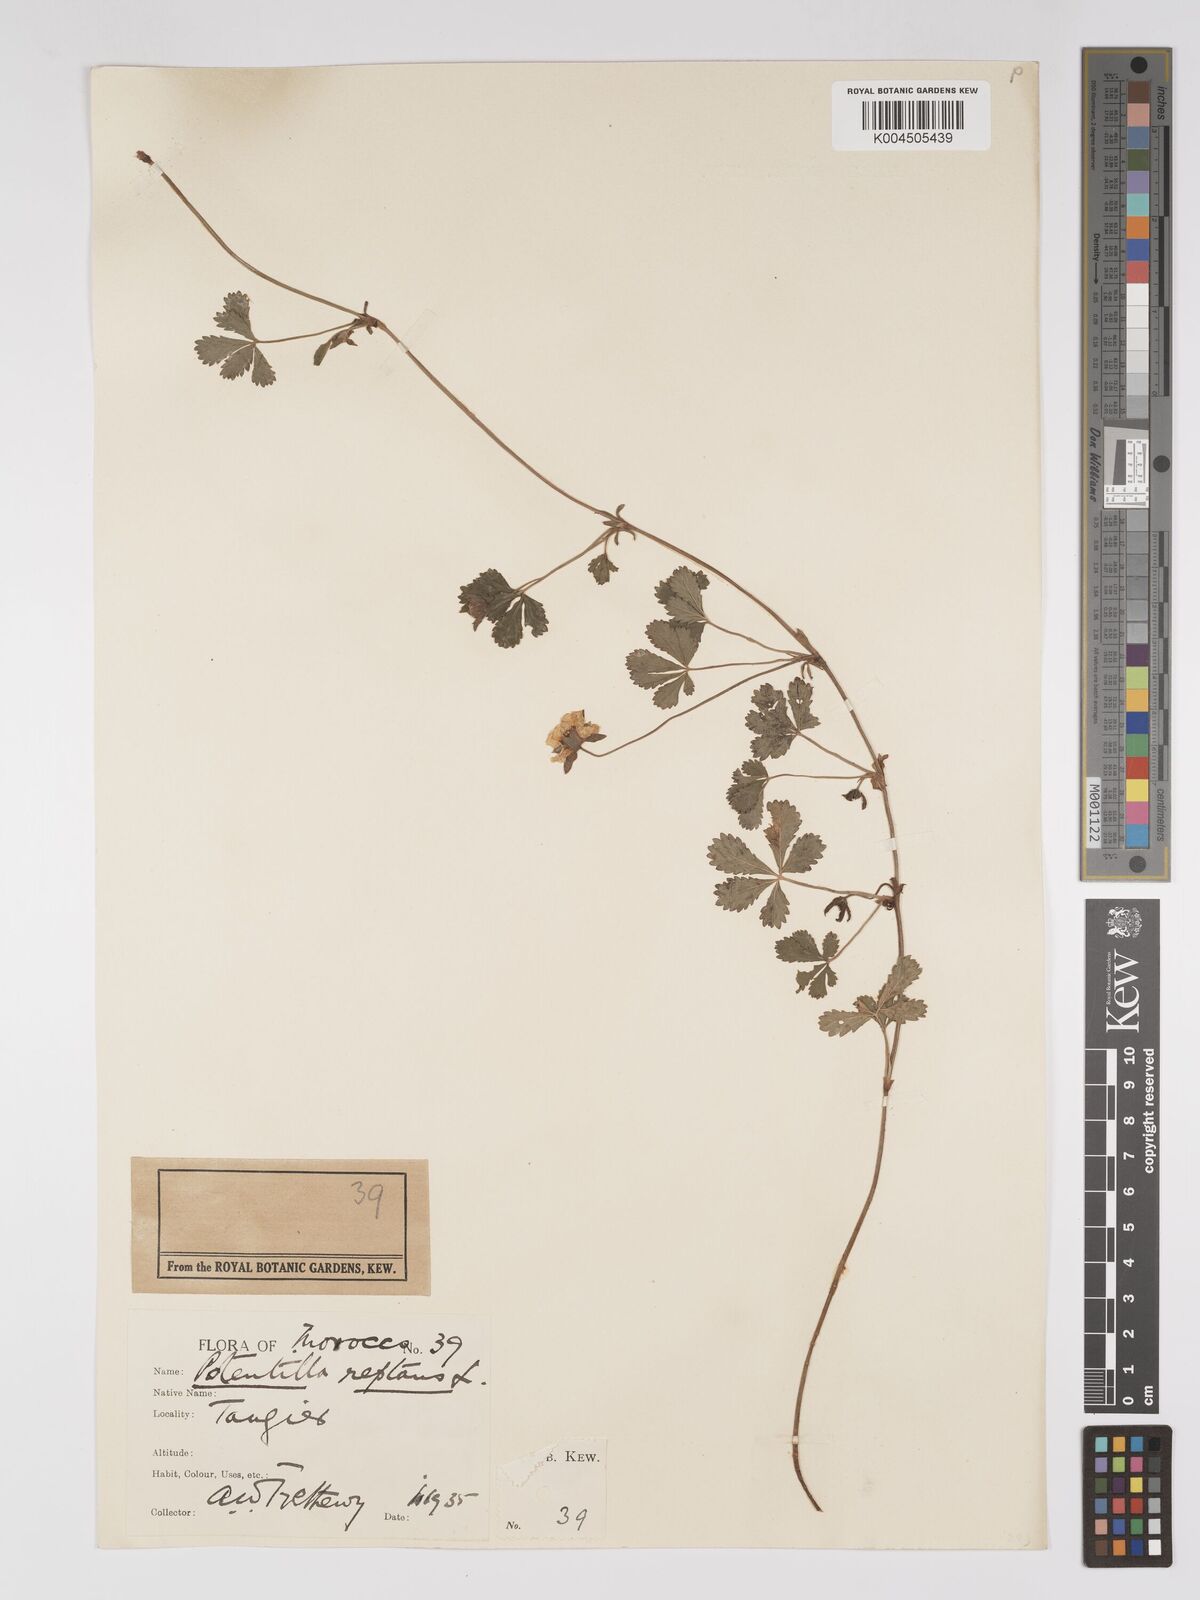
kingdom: Plantae
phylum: Tracheophyta
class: Magnoliopsida
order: Rosales
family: Rosaceae
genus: Potentilla
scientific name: Potentilla reptans
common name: Creeping cinquefoil
